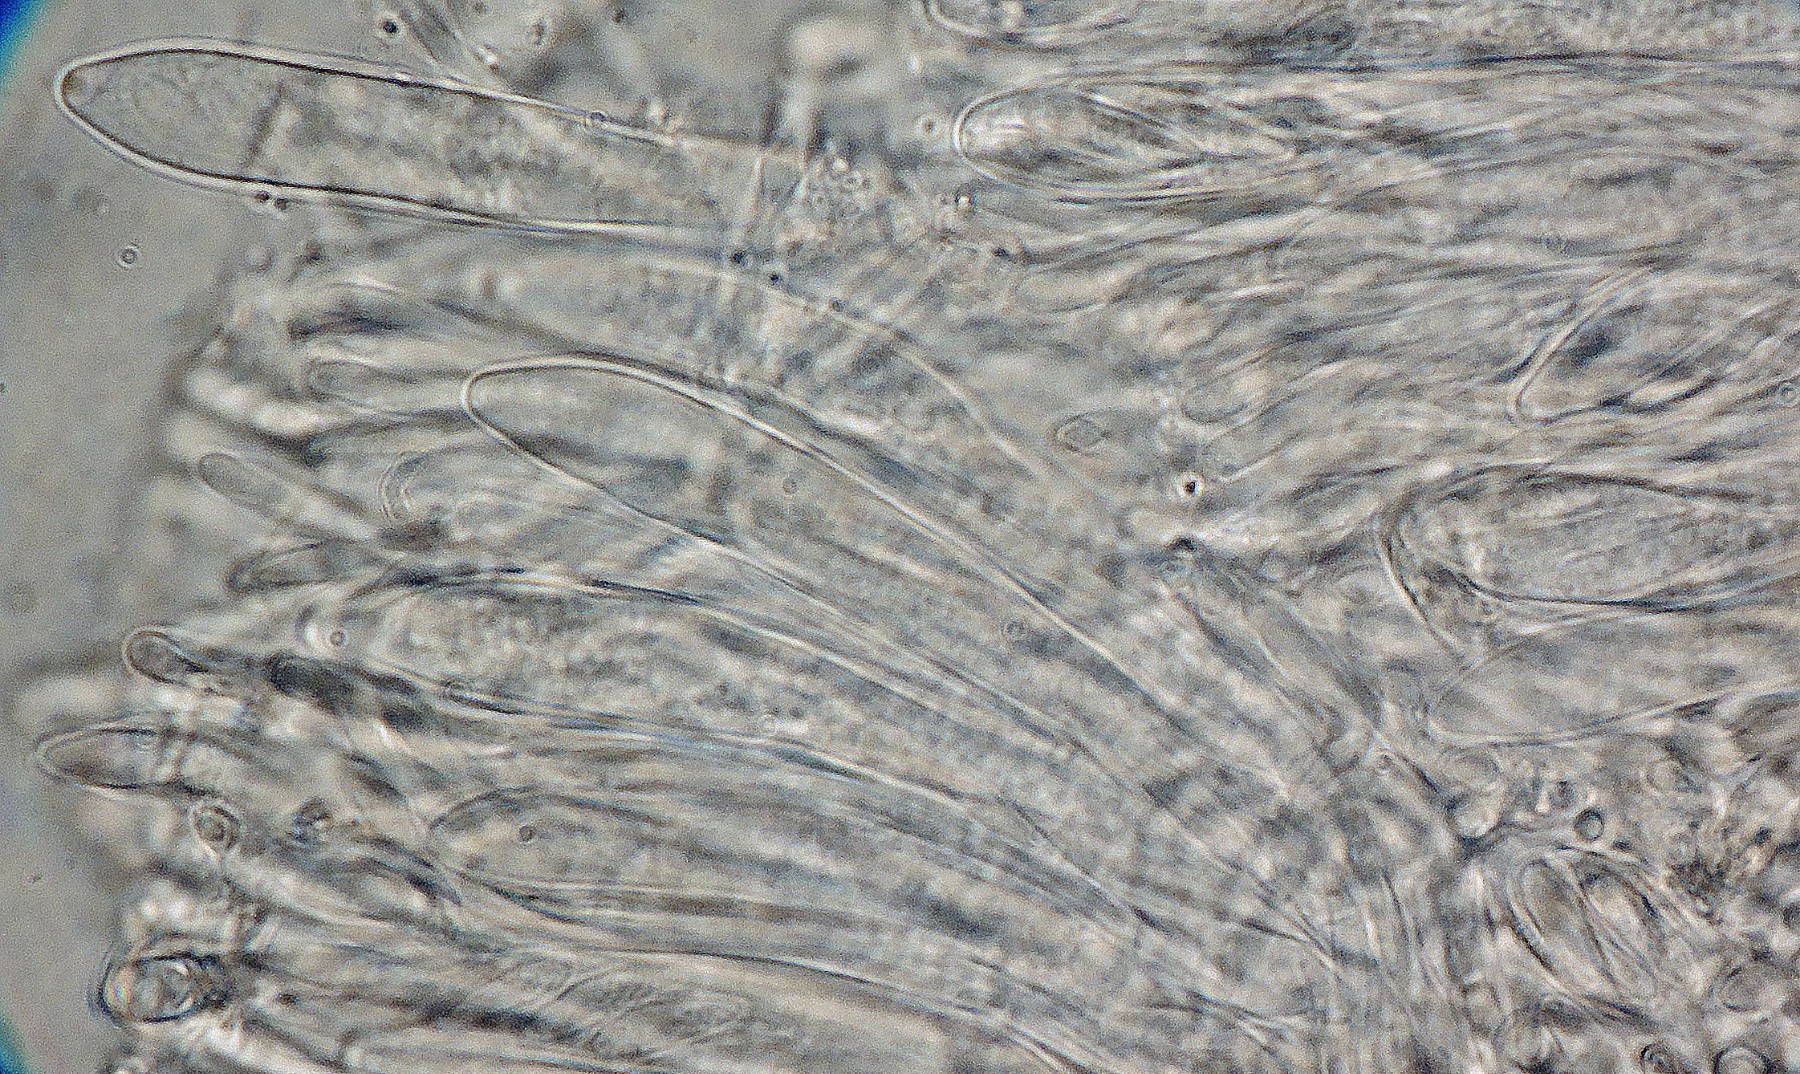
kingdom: Fungi
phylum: Ascomycota
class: Leotiomycetes
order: Helotiales
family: Ploettnerulaceae
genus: Pyrenopeziza
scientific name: Pyrenopeziza betulina
